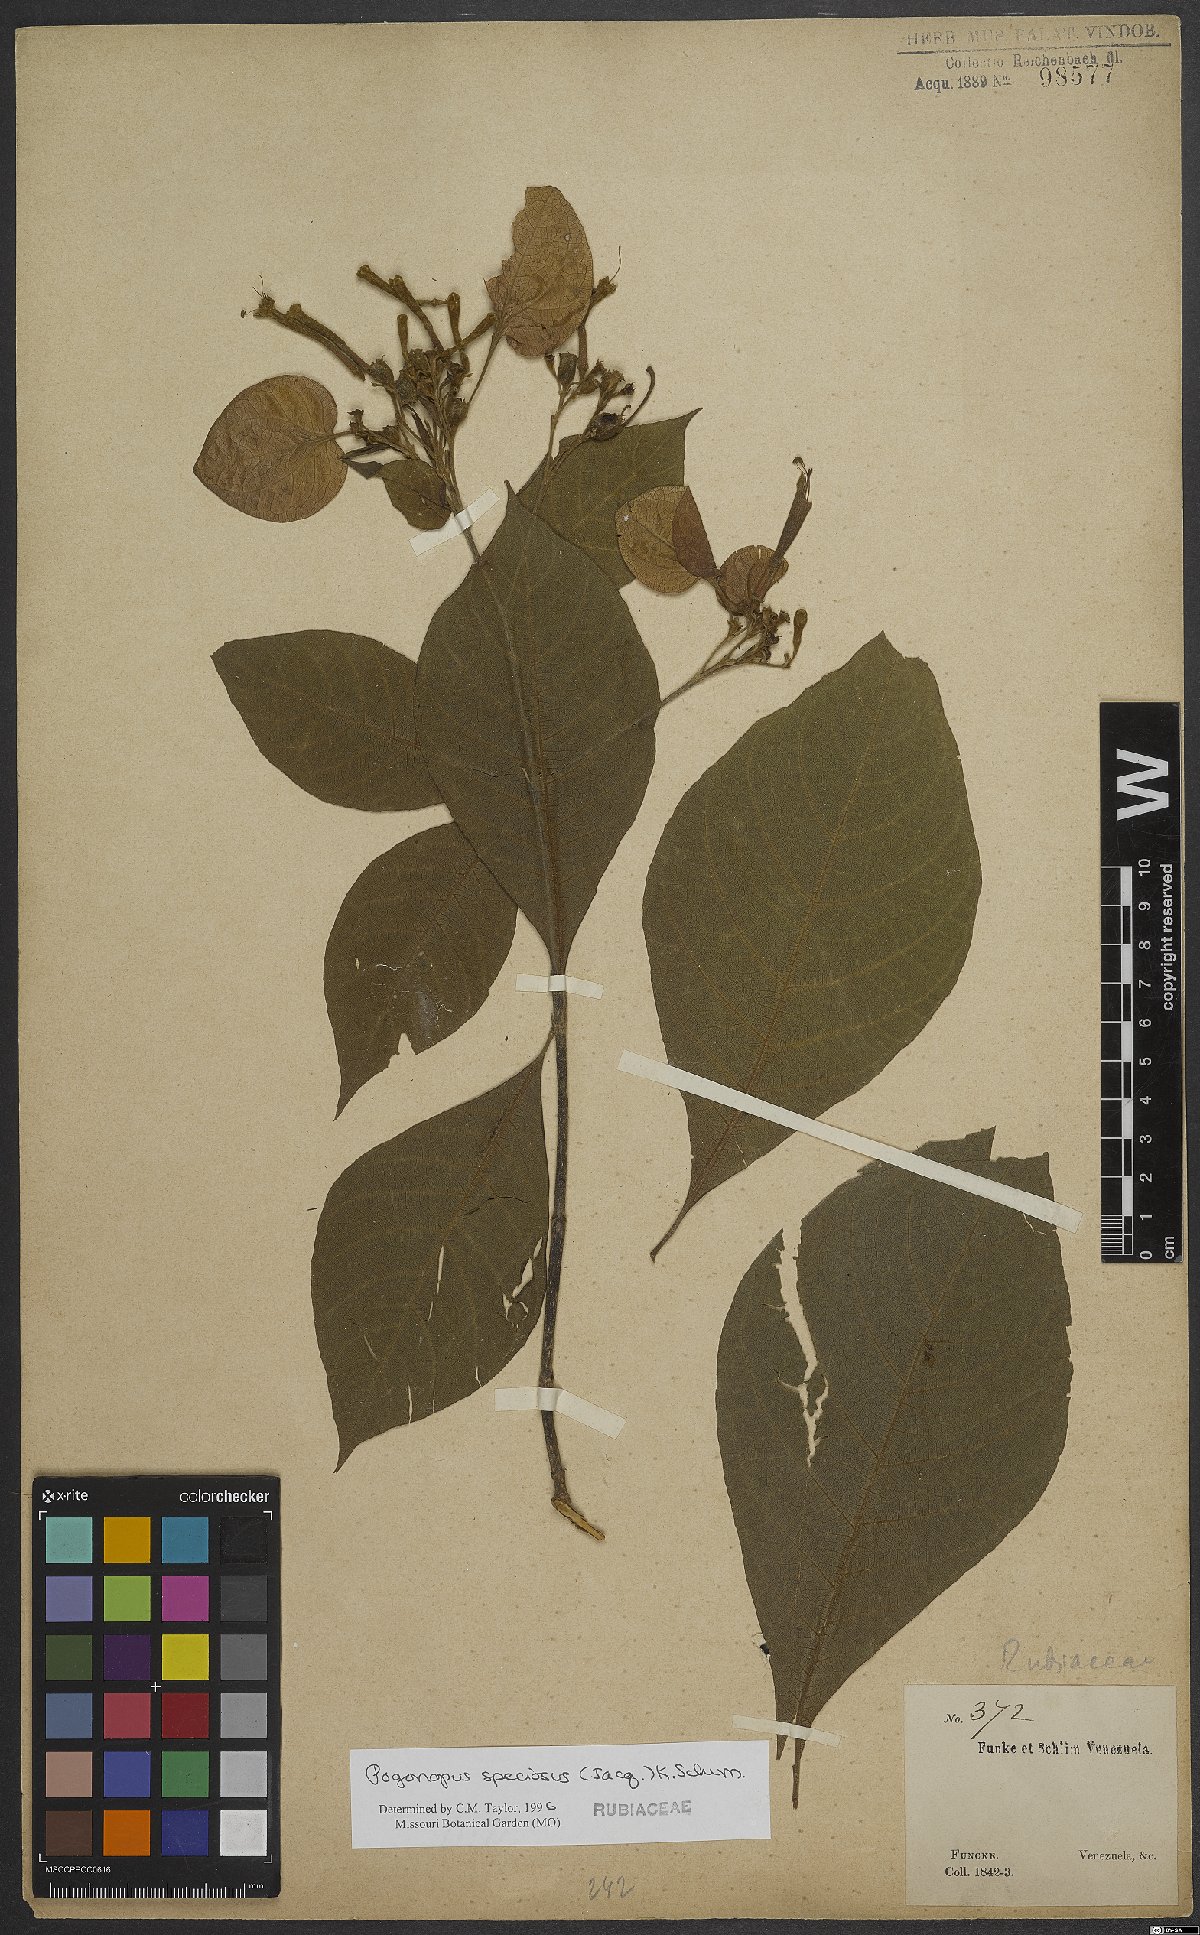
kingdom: Plantae
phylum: Tracheophyta
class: Magnoliopsida
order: Gentianales
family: Rubiaceae
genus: Pogonopus
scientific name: Pogonopus speciosus
